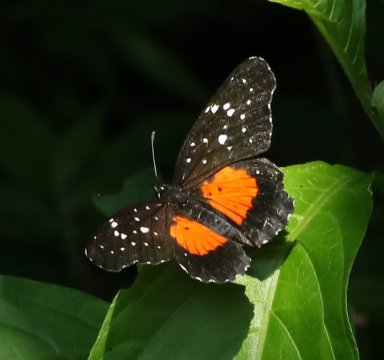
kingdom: Animalia
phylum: Arthropoda
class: Insecta
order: Lepidoptera
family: Nymphalidae
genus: Chlosyne
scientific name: Chlosyne janais
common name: Crimson Patch
